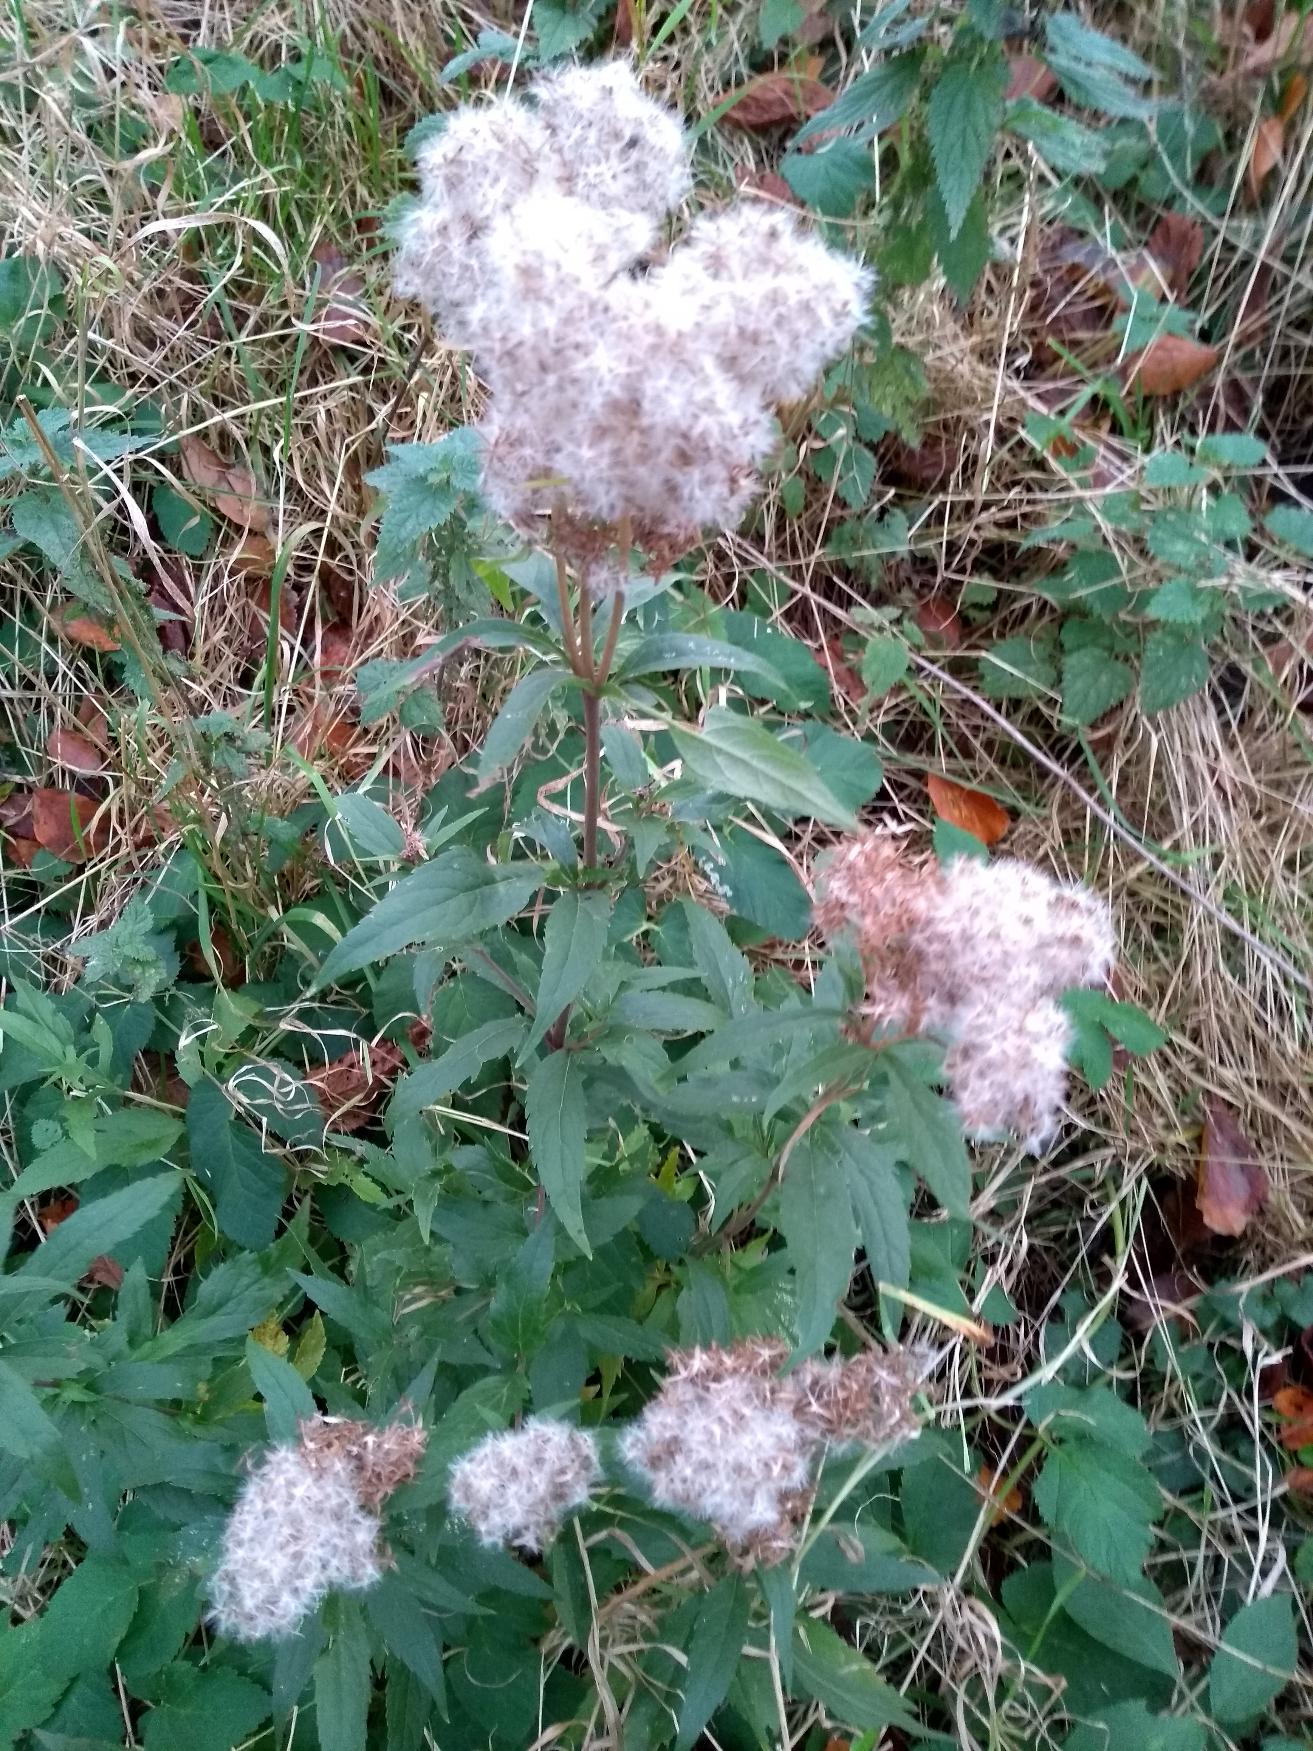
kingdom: Plantae
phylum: Tracheophyta
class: Magnoliopsida
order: Asterales
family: Asteraceae
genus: Eupatorium
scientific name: Eupatorium cannabinum
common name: Hjortetrøst
